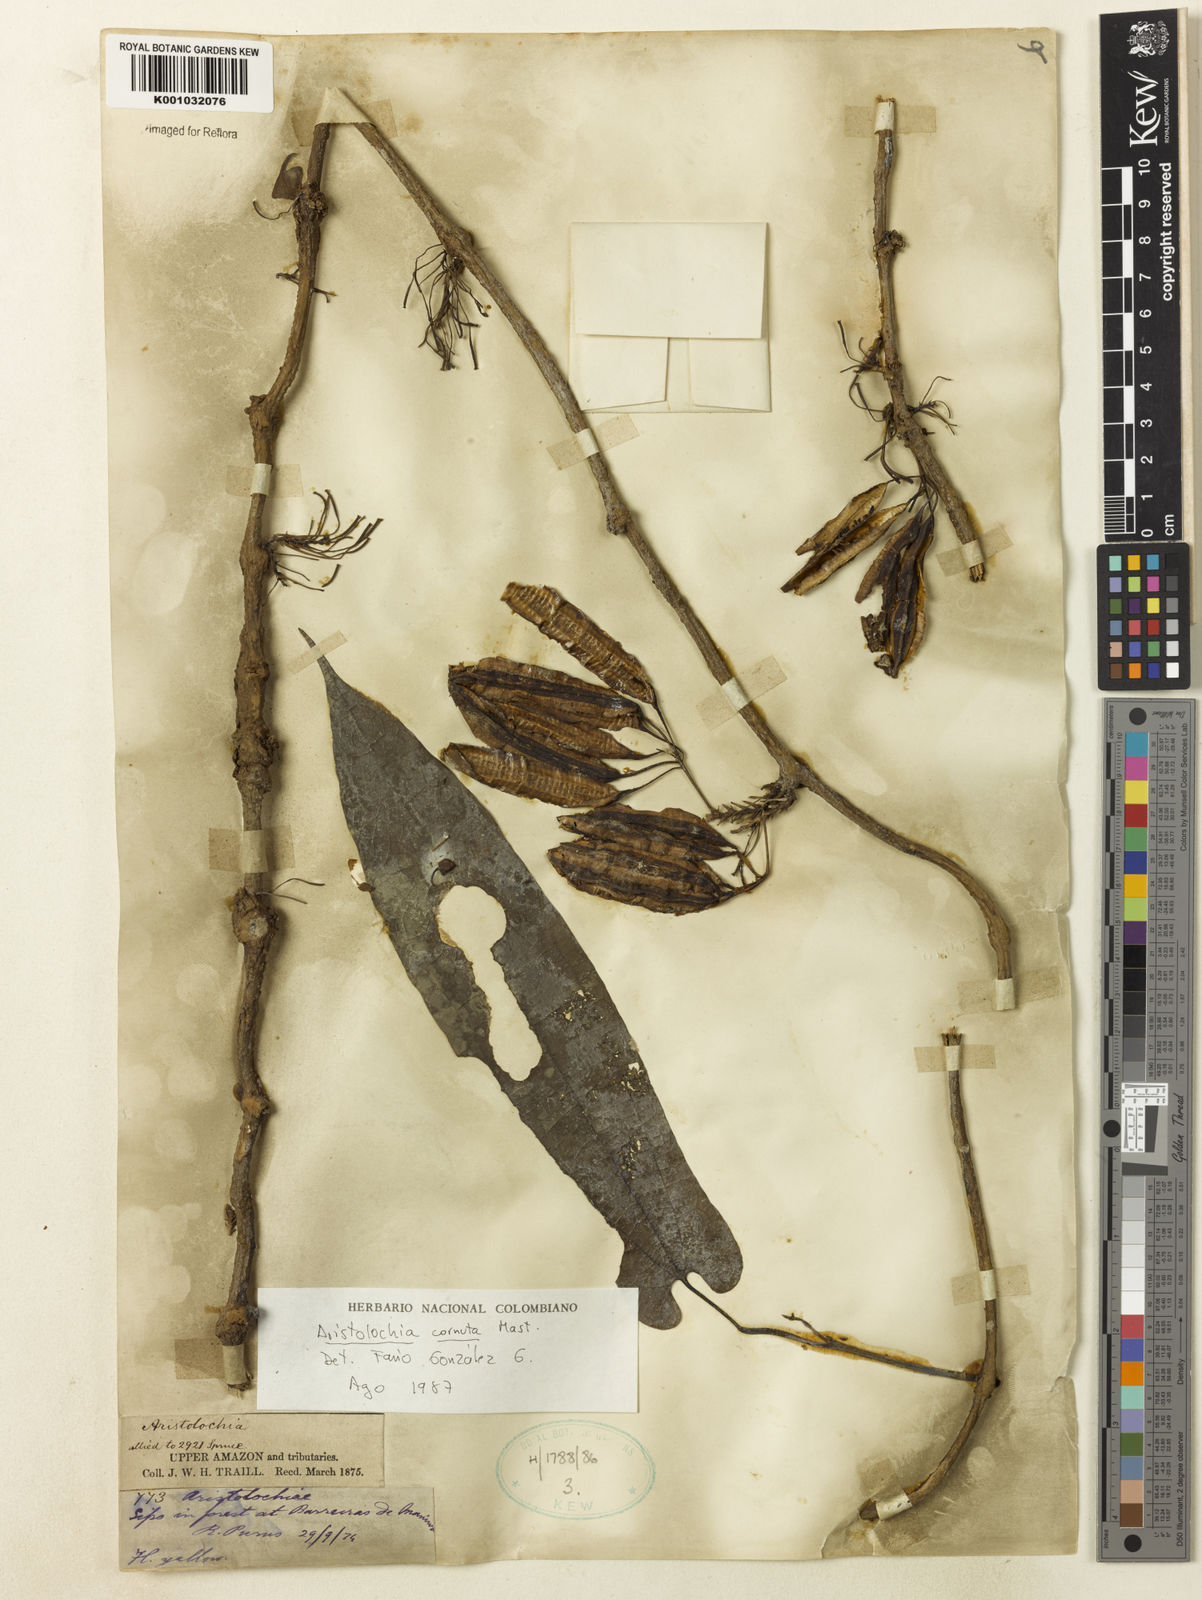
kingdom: Plantae
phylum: Tracheophyta
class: Magnoliopsida
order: Piperales
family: Aristolochiaceae
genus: Aristolochia
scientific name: Aristolochia cornuta
